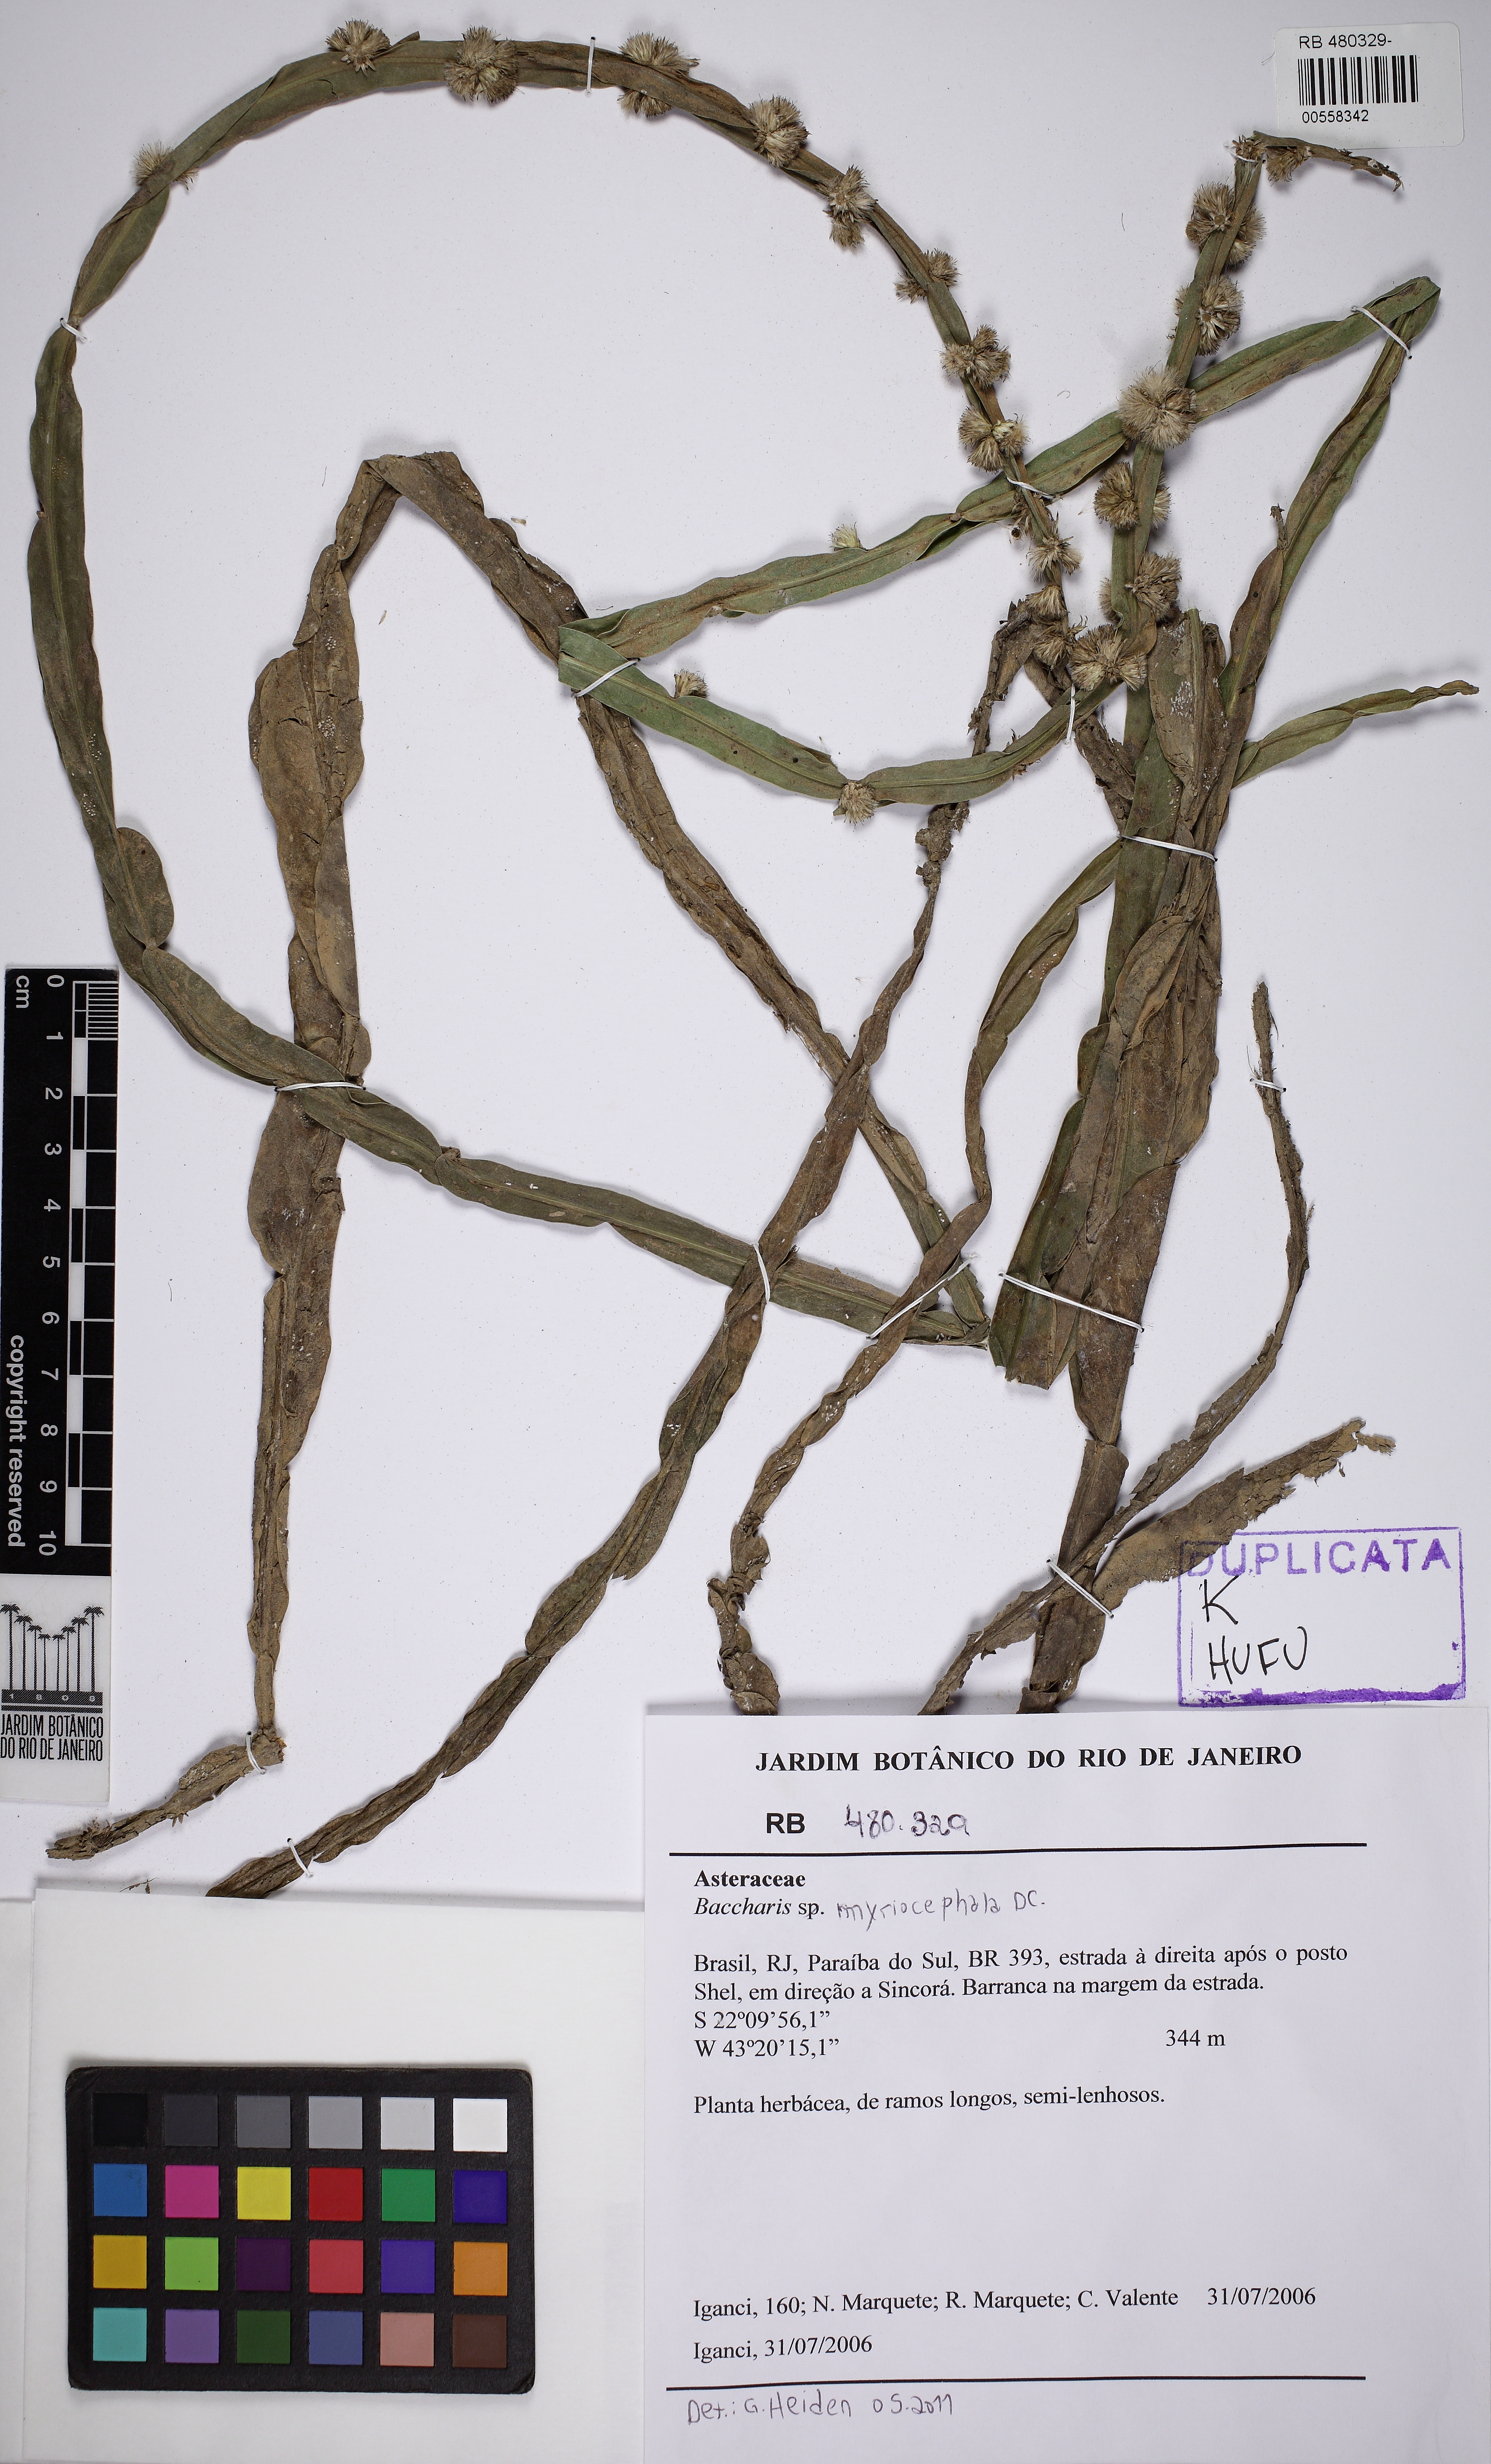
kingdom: Plantae
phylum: Tracheophyta
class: Magnoliopsida
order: Asterales
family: Asteraceae
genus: Baccharis
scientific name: Baccharis myriocephala
